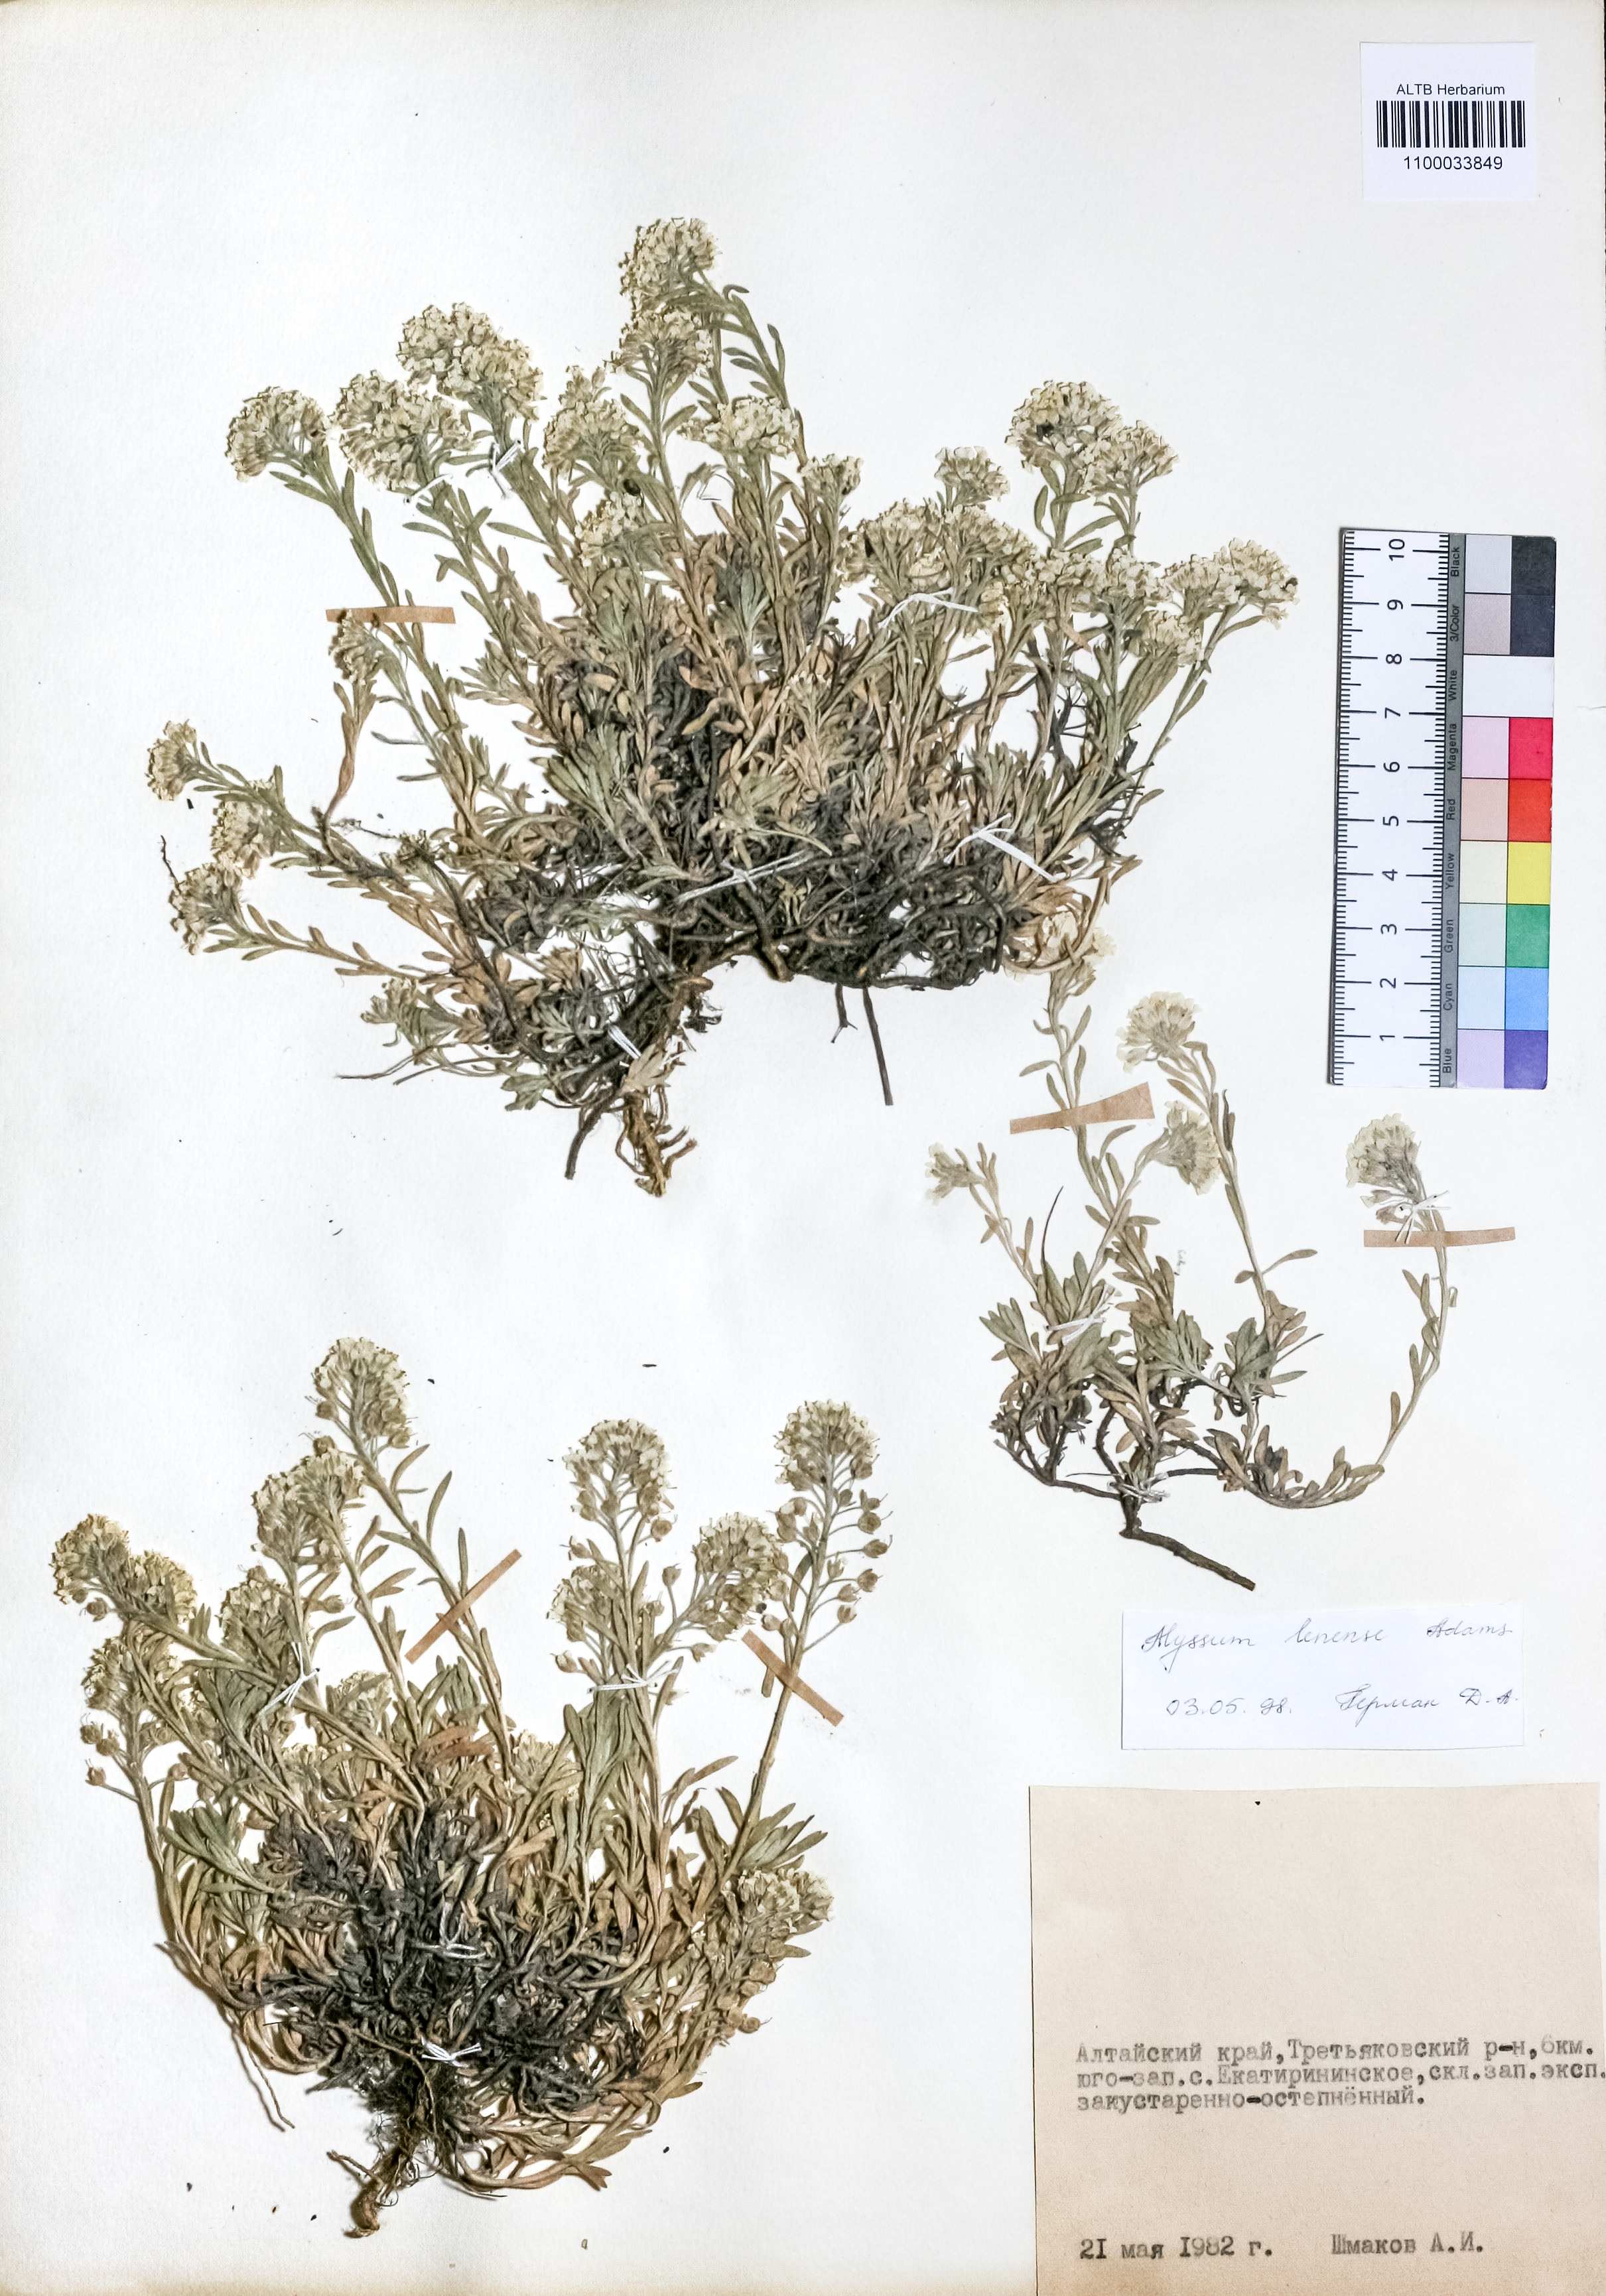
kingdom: Plantae
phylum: Tracheophyta
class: Magnoliopsida
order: Brassicales
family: Brassicaceae
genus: Alyssum
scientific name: Alyssum lenense
